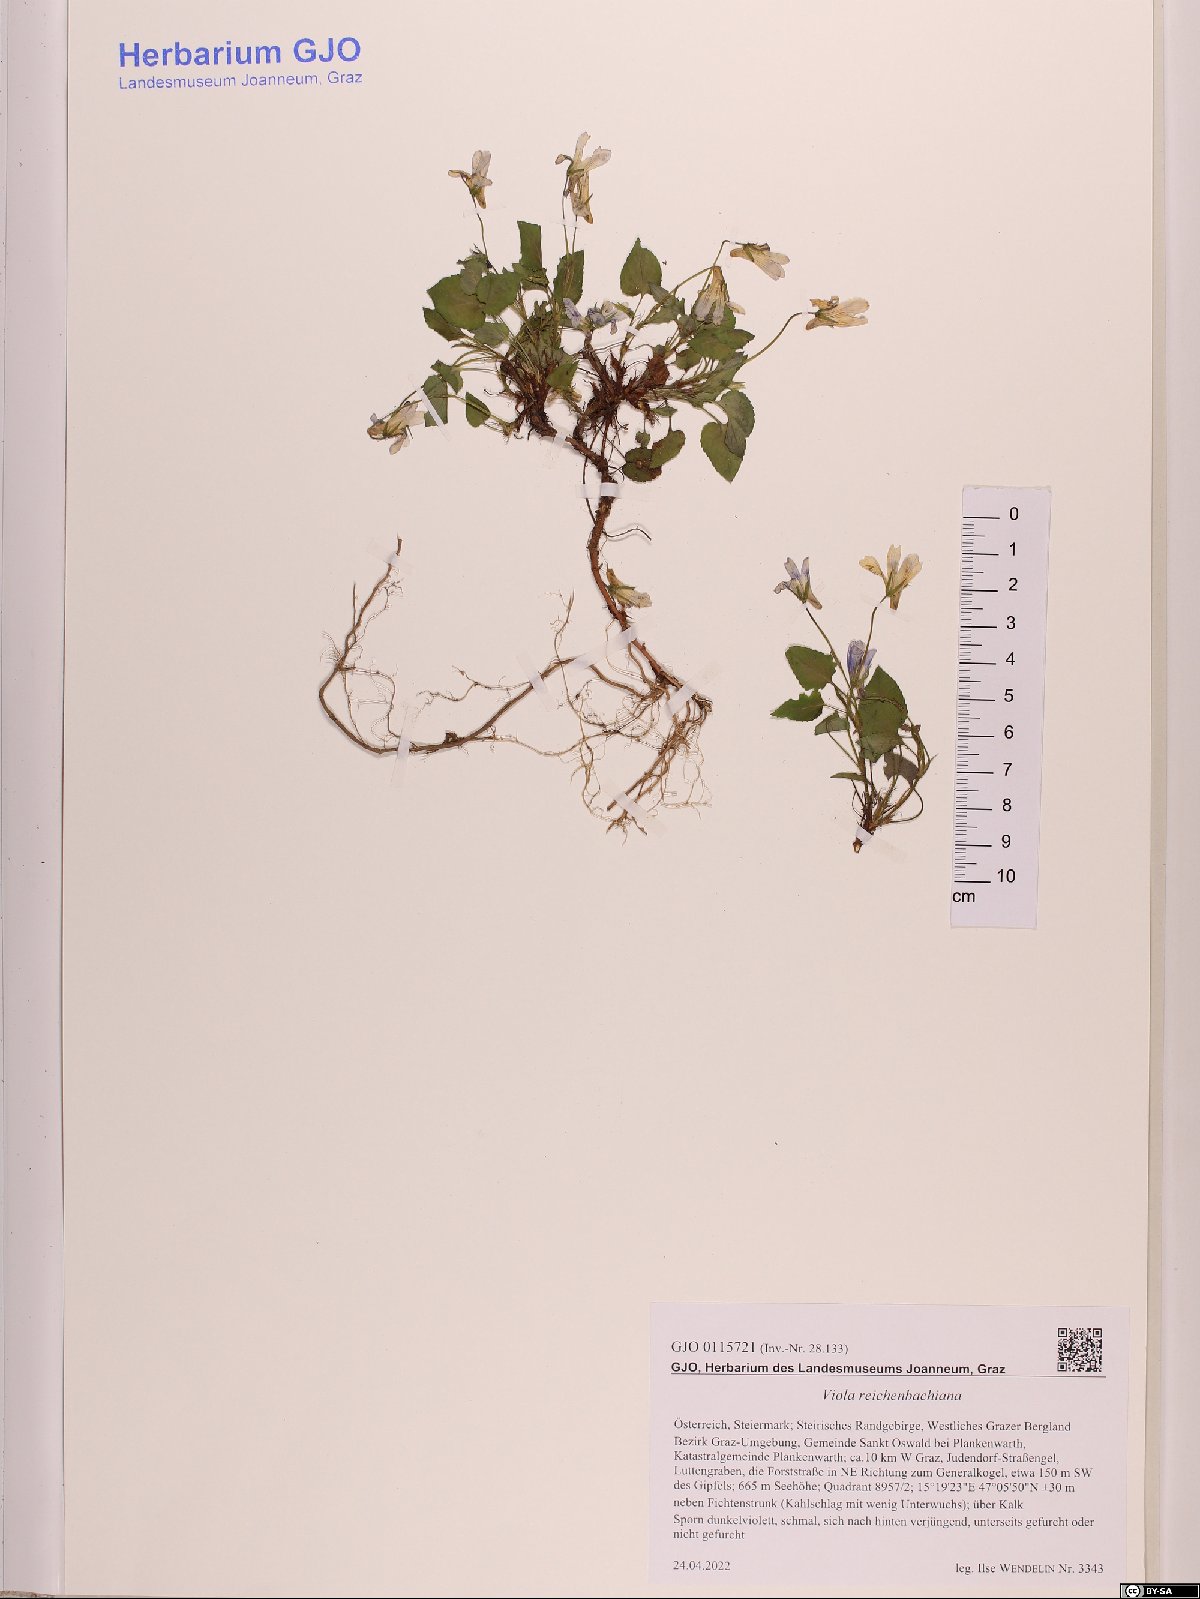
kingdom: Plantae
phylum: Tracheophyta
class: Magnoliopsida
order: Malpighiales
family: Violaceae
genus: Viola
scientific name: Viola reichenbachiana
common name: Early dog-violet
